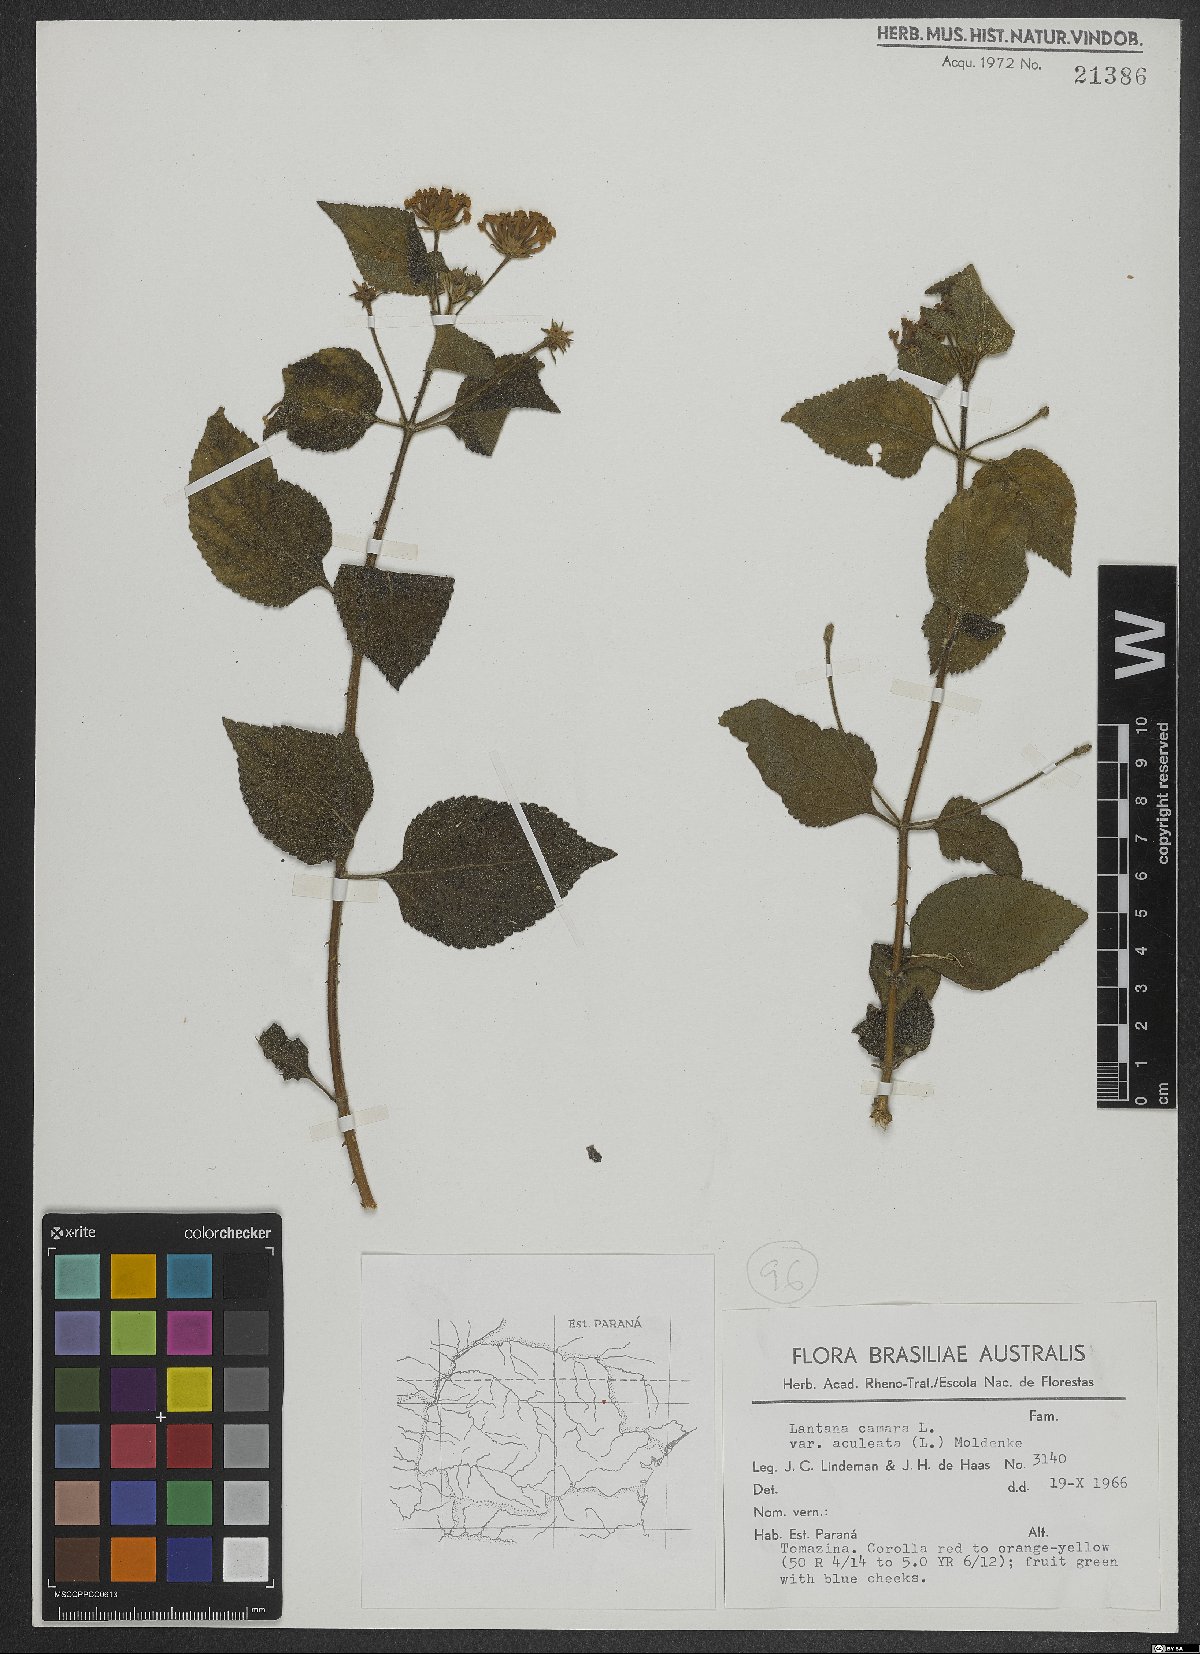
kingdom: Plantae
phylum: Tracheophyta
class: Magnoliopsida
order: Lamiales
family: Verbenaceae
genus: Lantana
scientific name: Lantana camara
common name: Lantana
